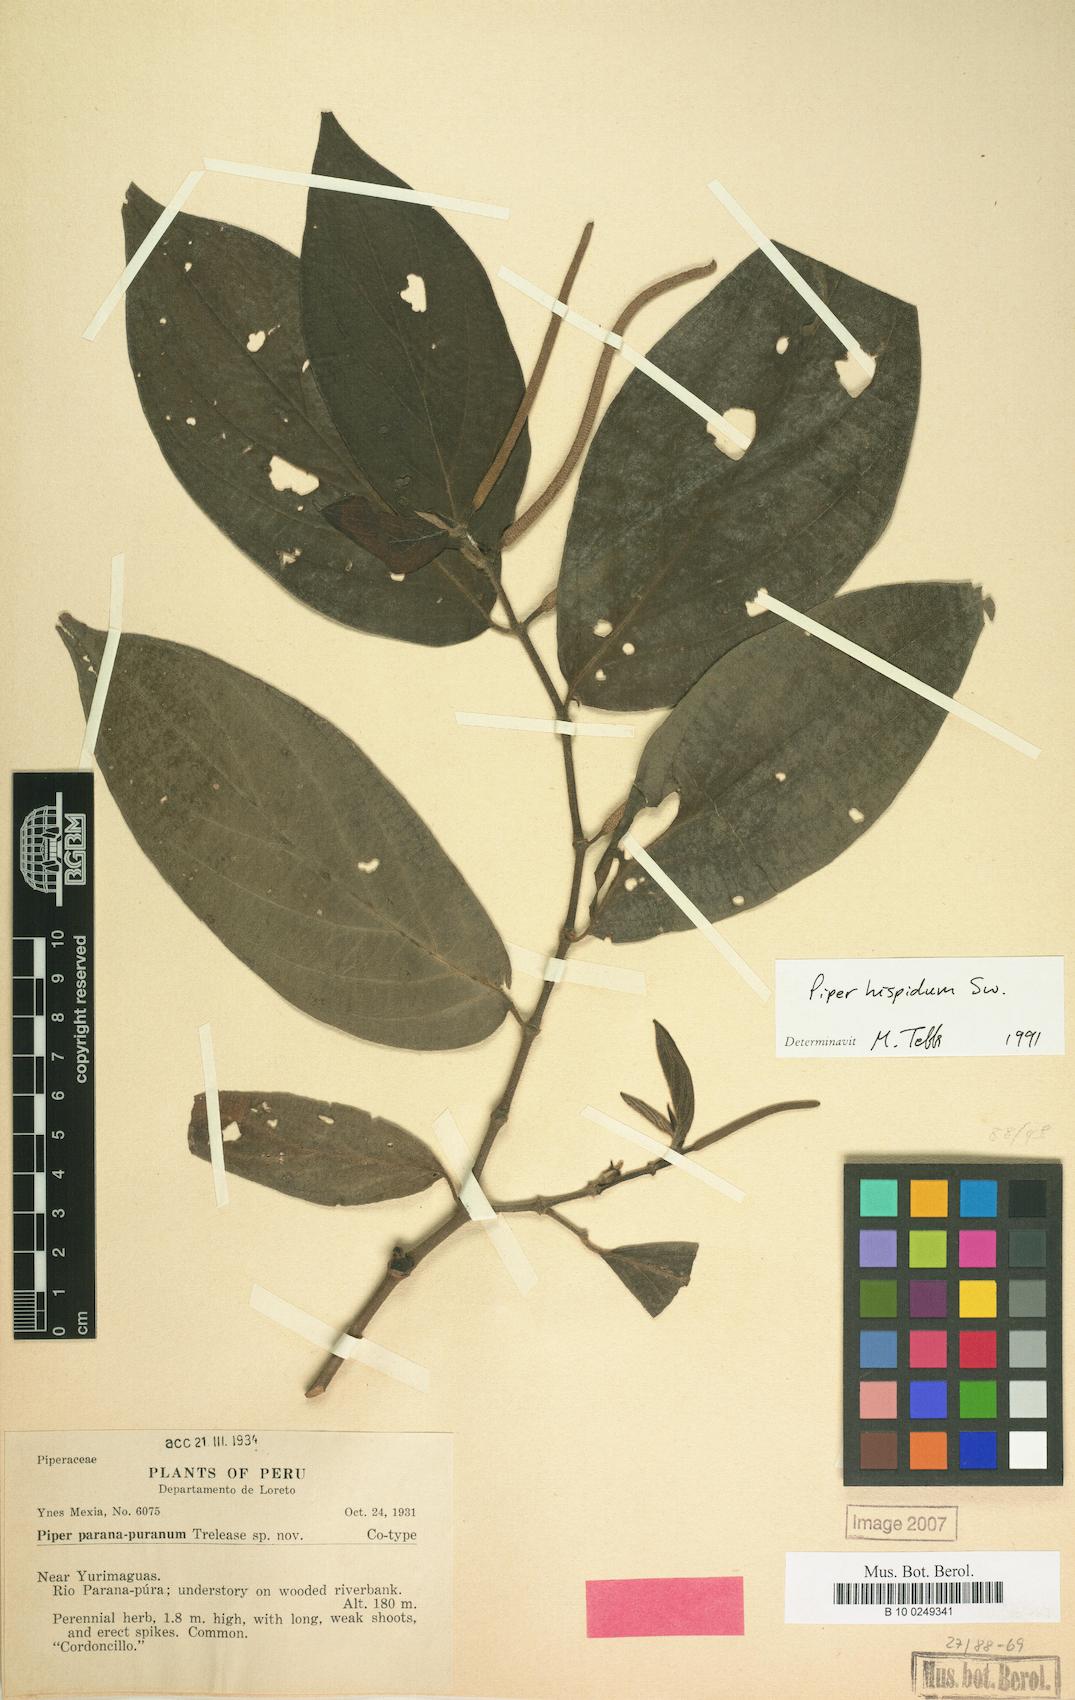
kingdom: Plantae
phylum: Tracheophyta
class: Magnoliopsida
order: Piperales
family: Piperaceae
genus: Piper
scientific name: Piper hispidum
